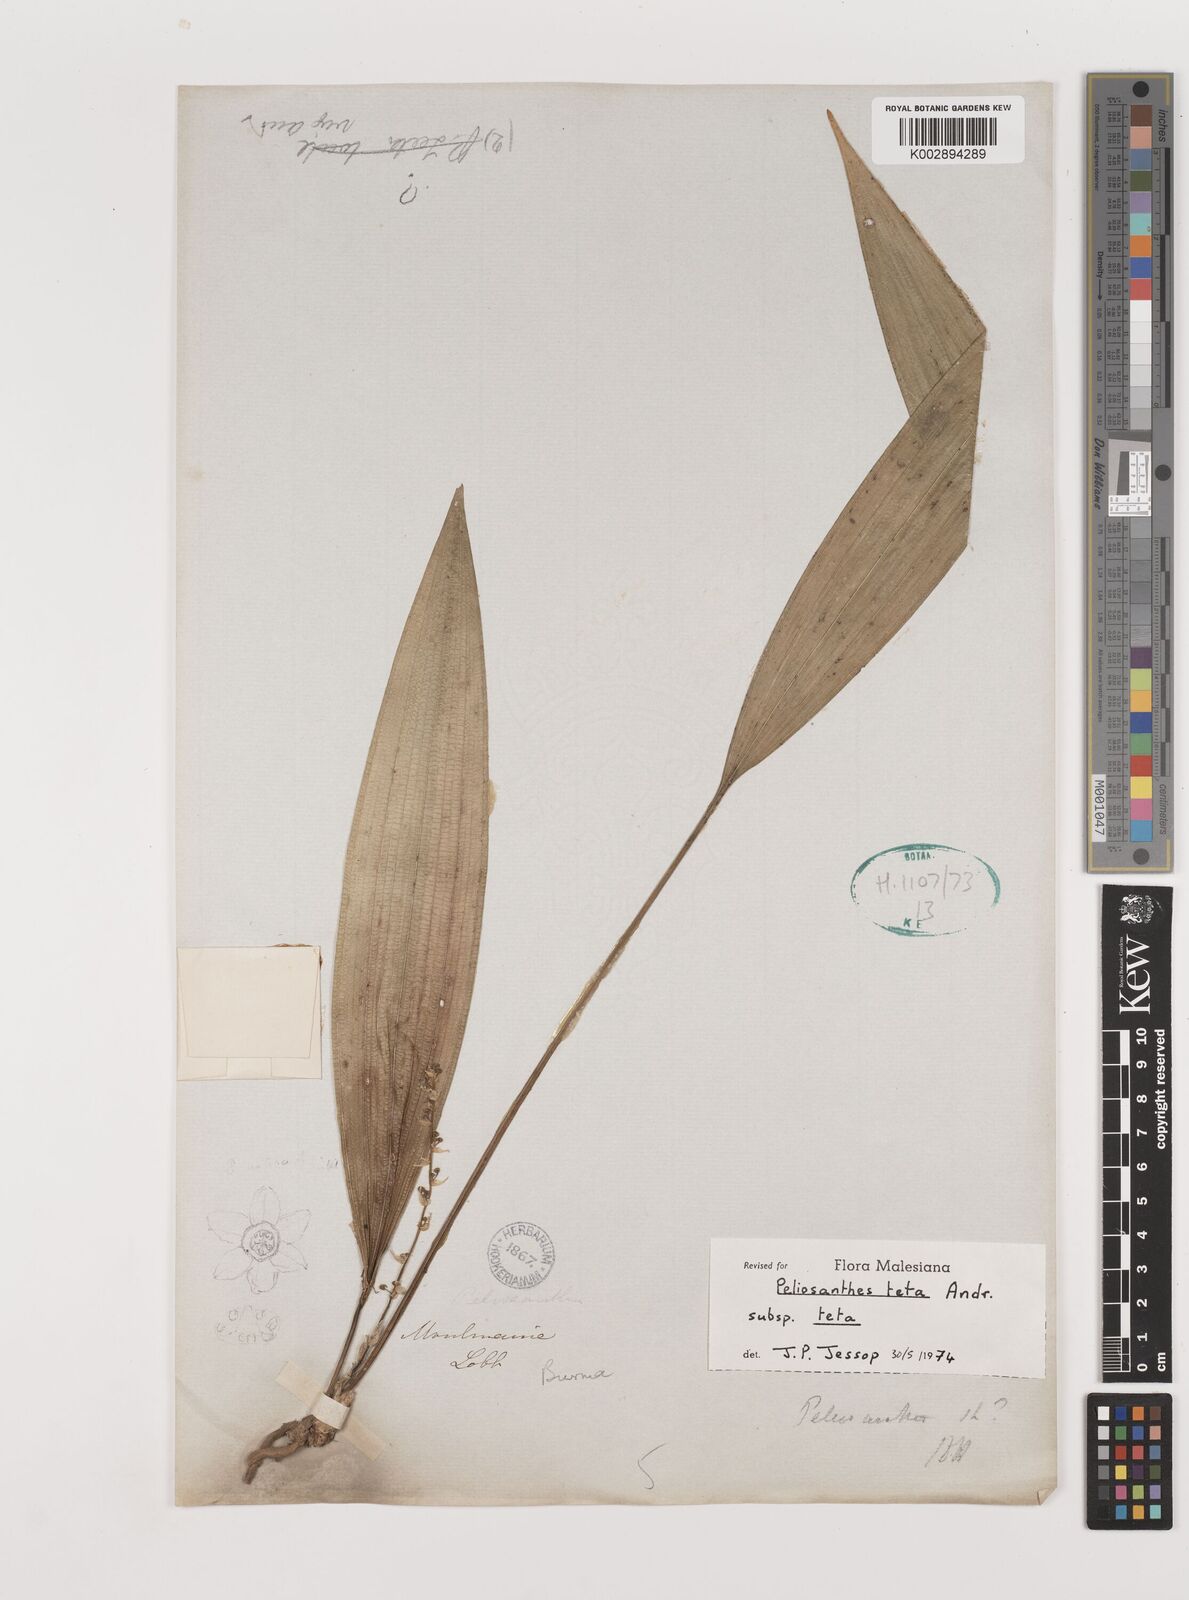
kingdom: Plantae
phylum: Tracheophyta
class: Liliopsida
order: Asparagales
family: Asparagaceae
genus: Peliosanthes
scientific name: Peliosanthes teta
